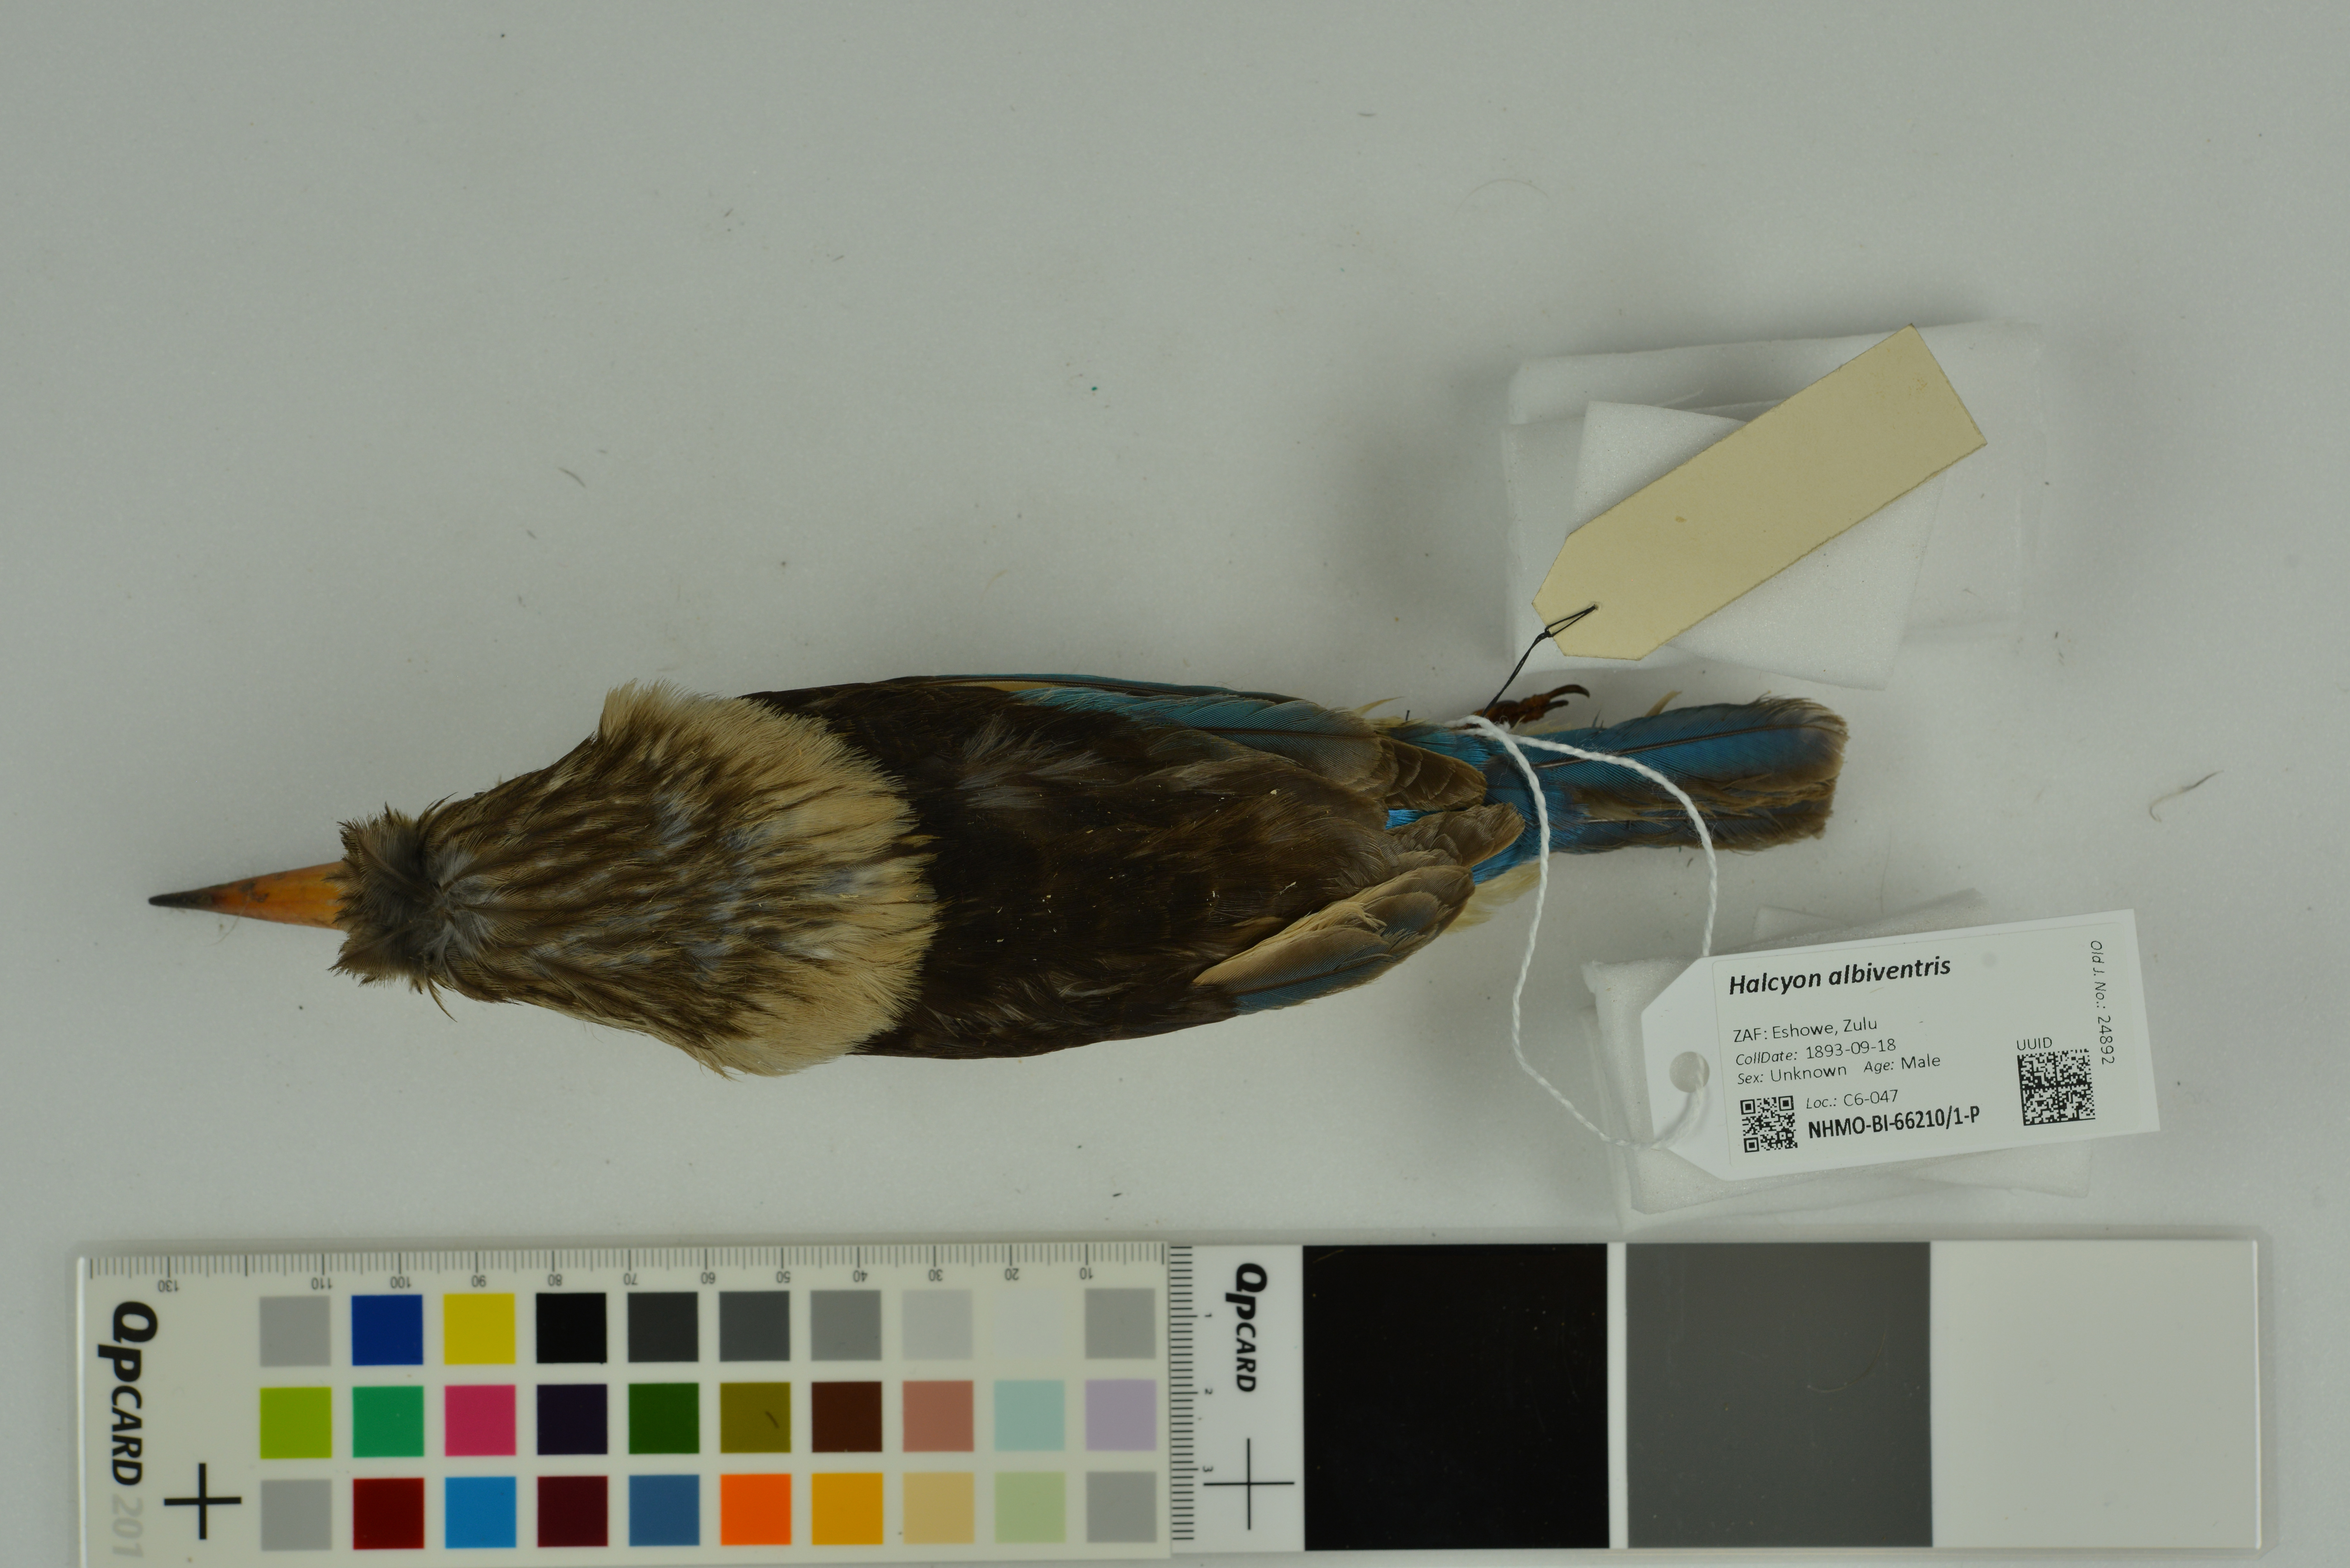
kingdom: Animalia
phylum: Chordata
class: Aves
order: Coraciiformes
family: Alcedinidae
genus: Halcyon
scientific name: Halcyon albiventris
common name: Brown-hooded kingfisher
